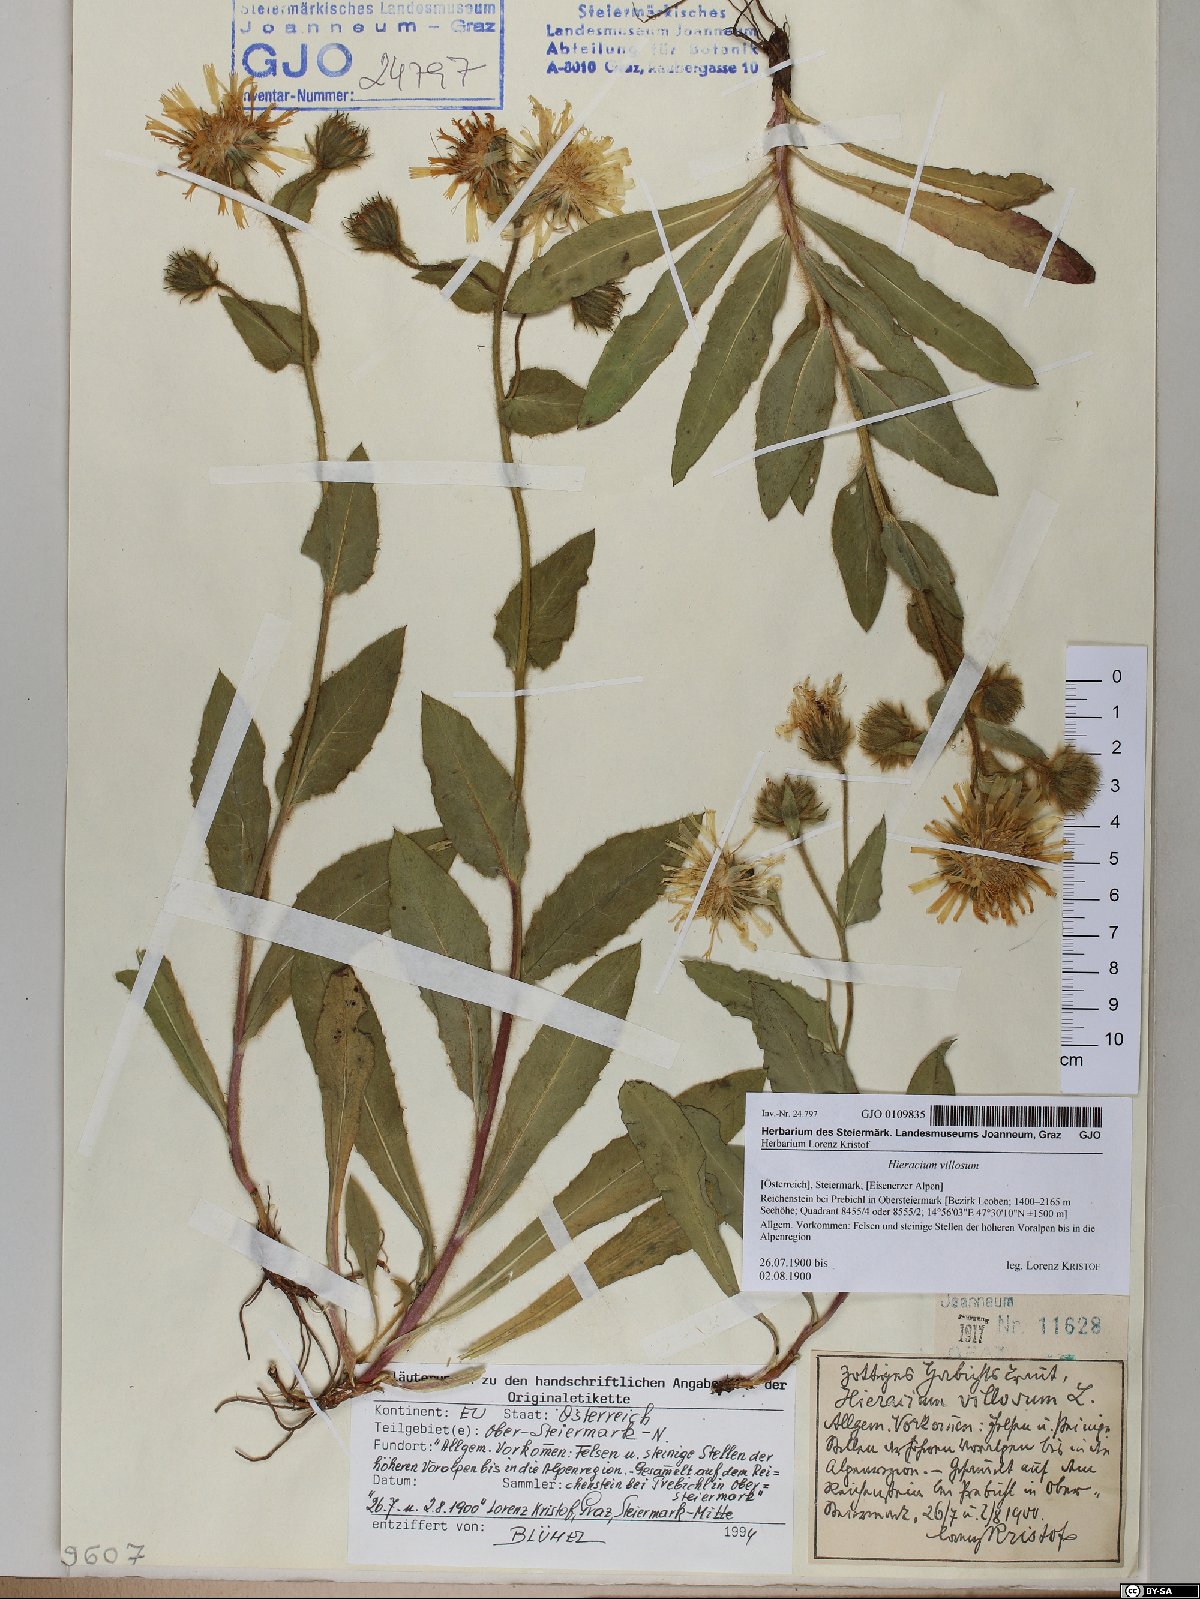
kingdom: Plantae
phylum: Tracheophyta
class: Magnoliopsida
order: Asterales
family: Asteraceae
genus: Hieracium
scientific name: Hieracium villosum
